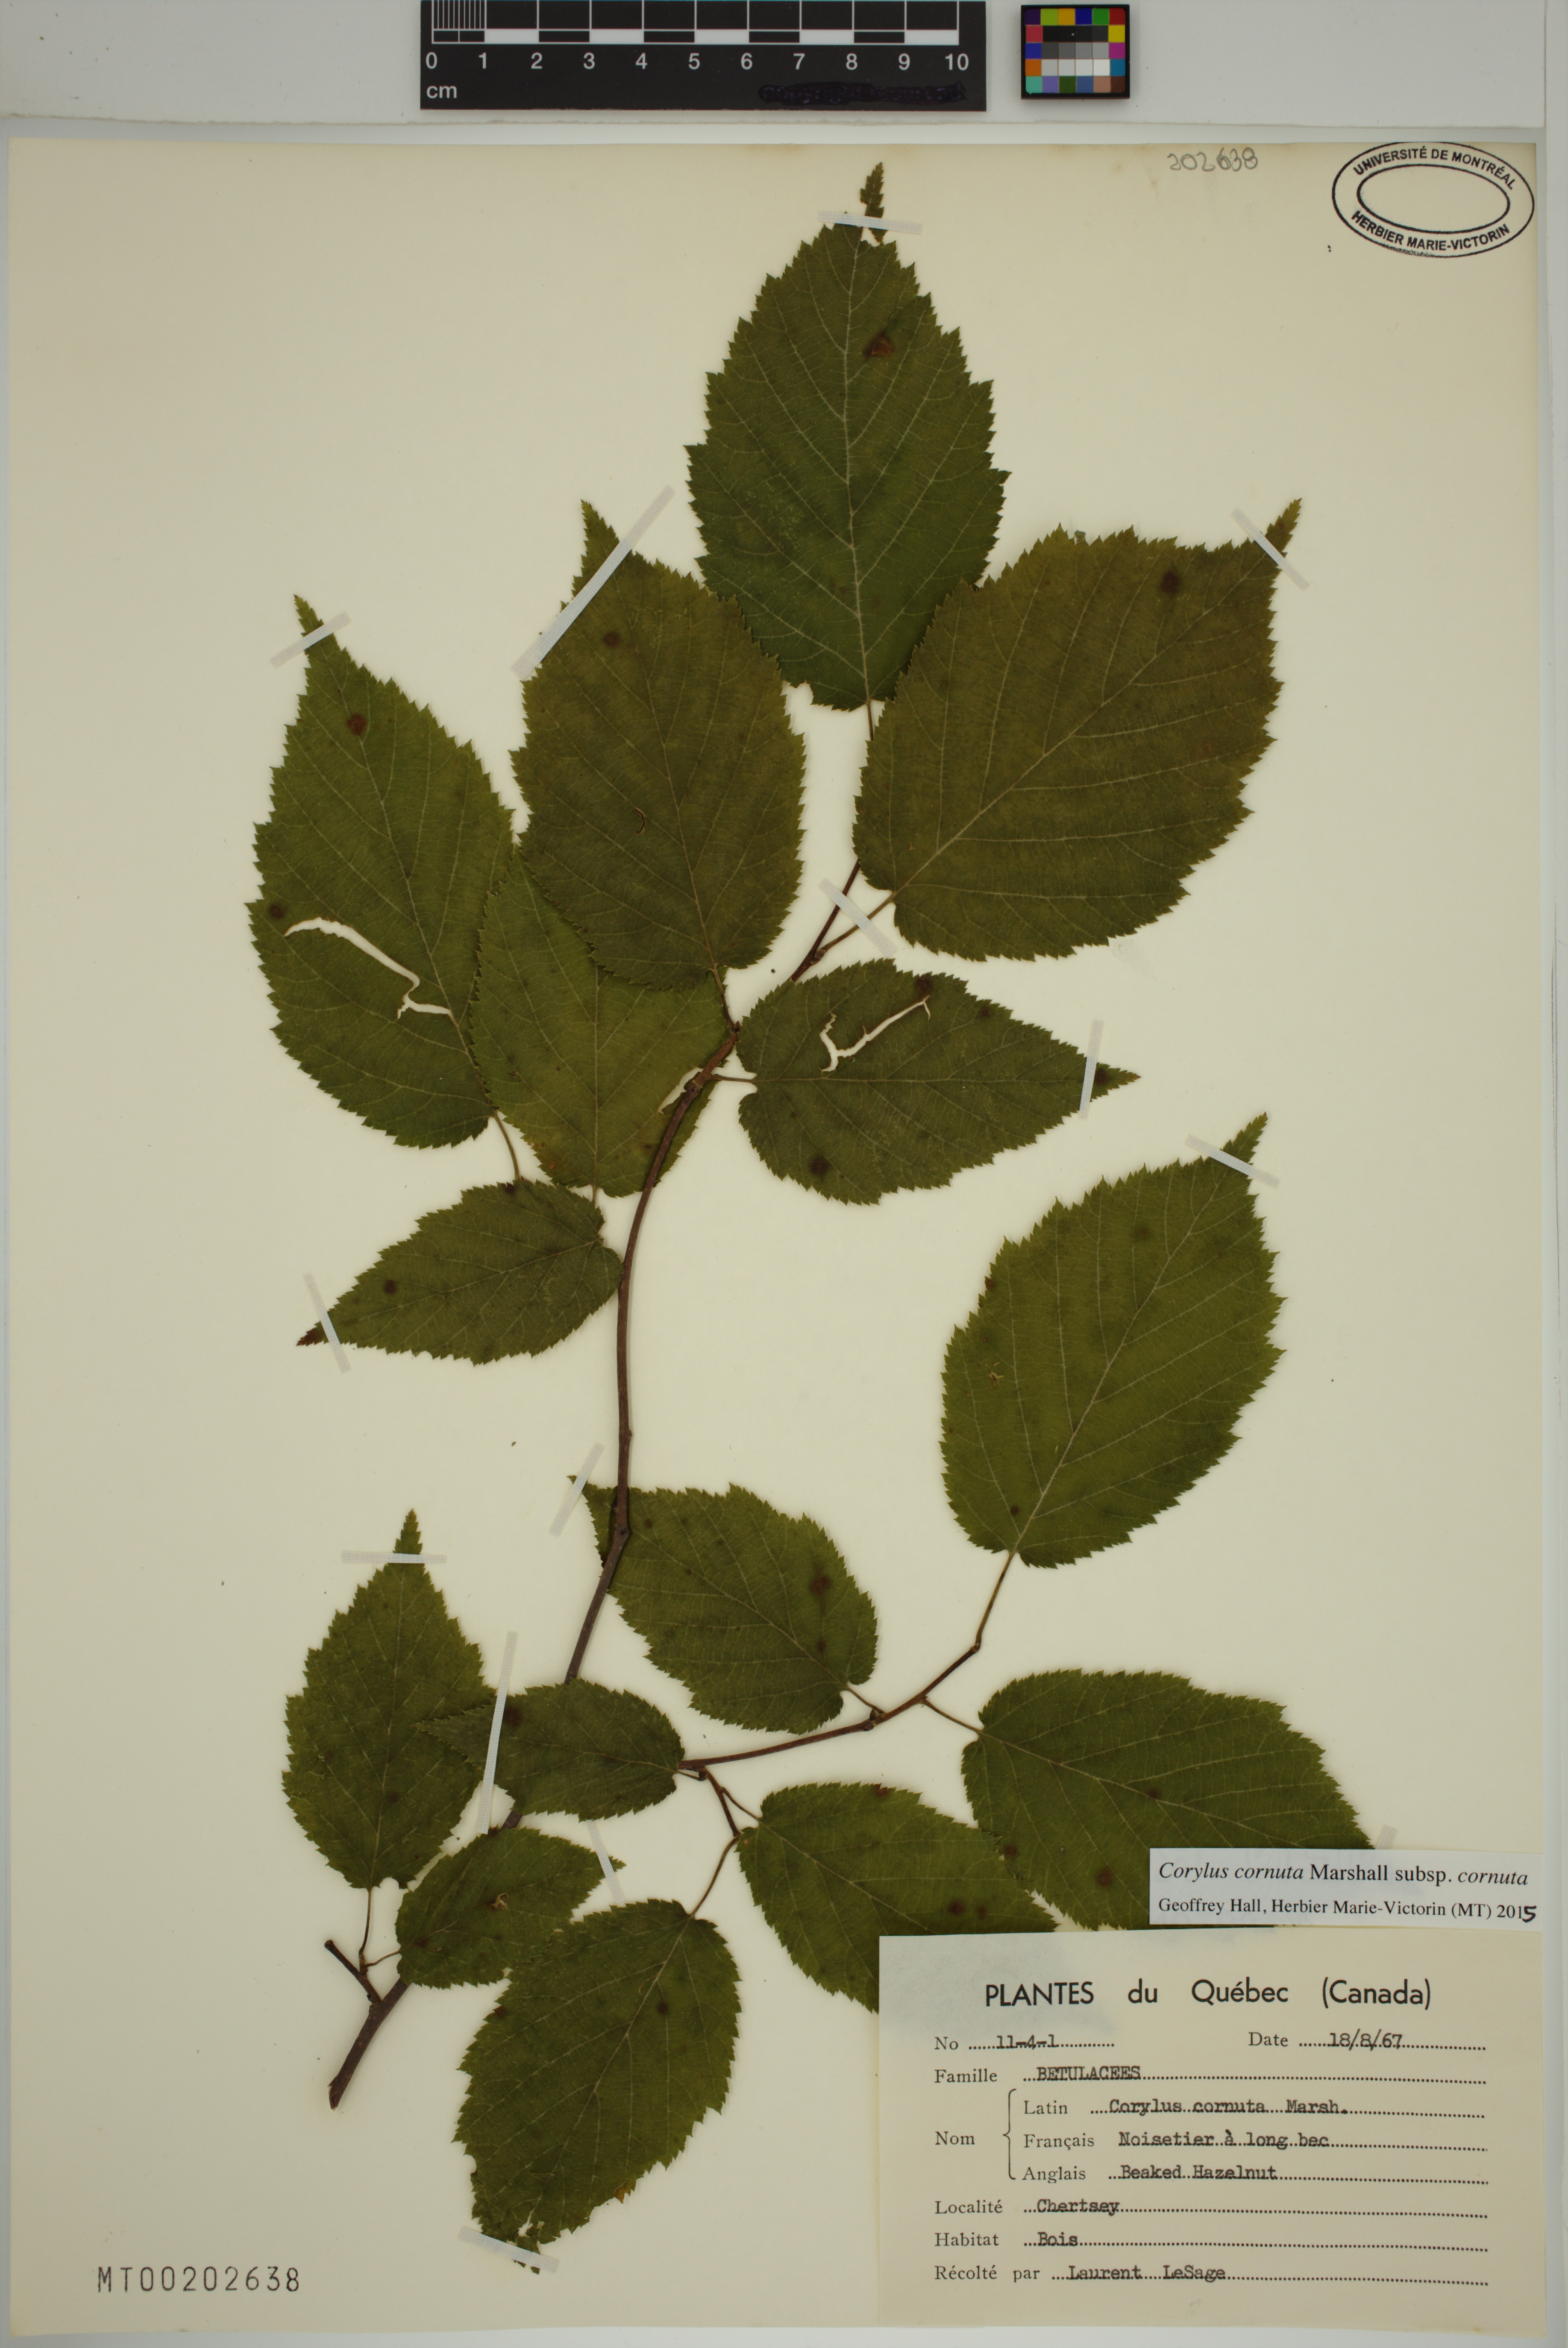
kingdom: Plantae
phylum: Tracheophyta
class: Magnoliopsida
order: Fagales
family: Betulaceae
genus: Corylus
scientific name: Corylus cornuta
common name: Beaked hazel
